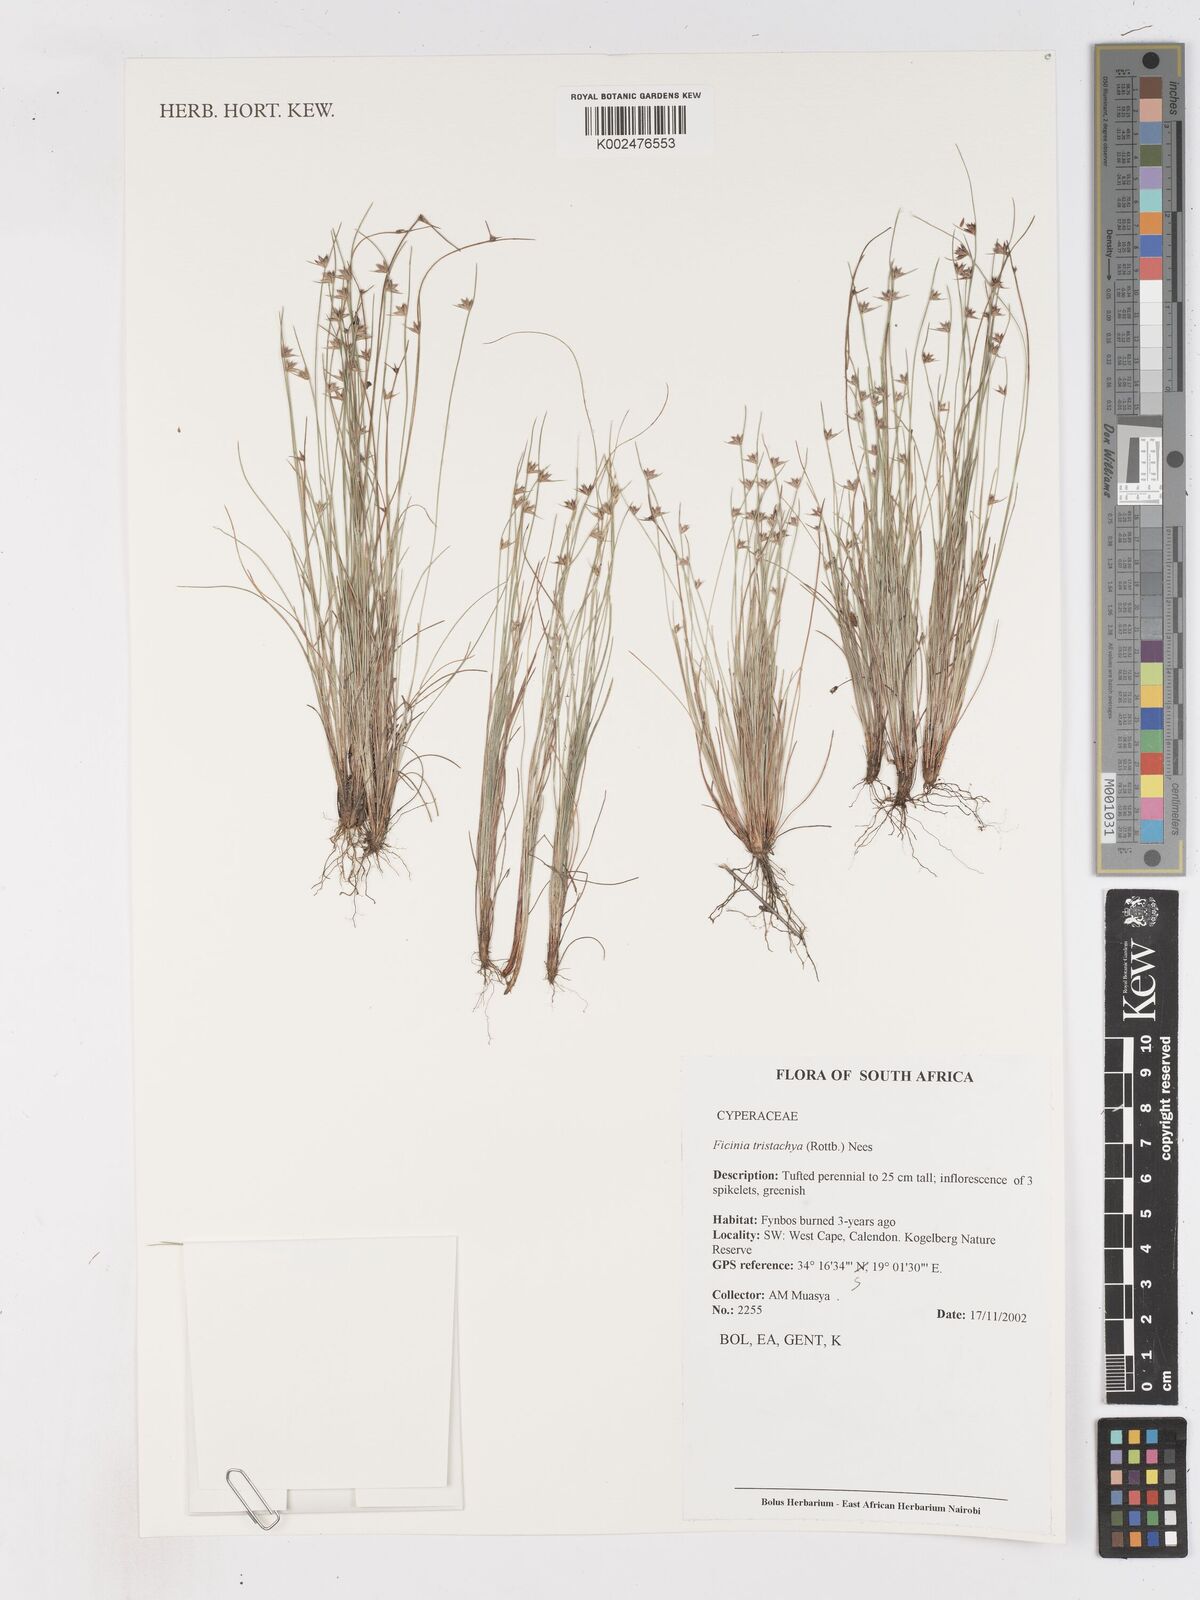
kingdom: Plantae
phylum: Tracheophyta
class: Liliopsida
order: Poales
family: Cyperaceae
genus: Ficinia
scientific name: Ficinia
